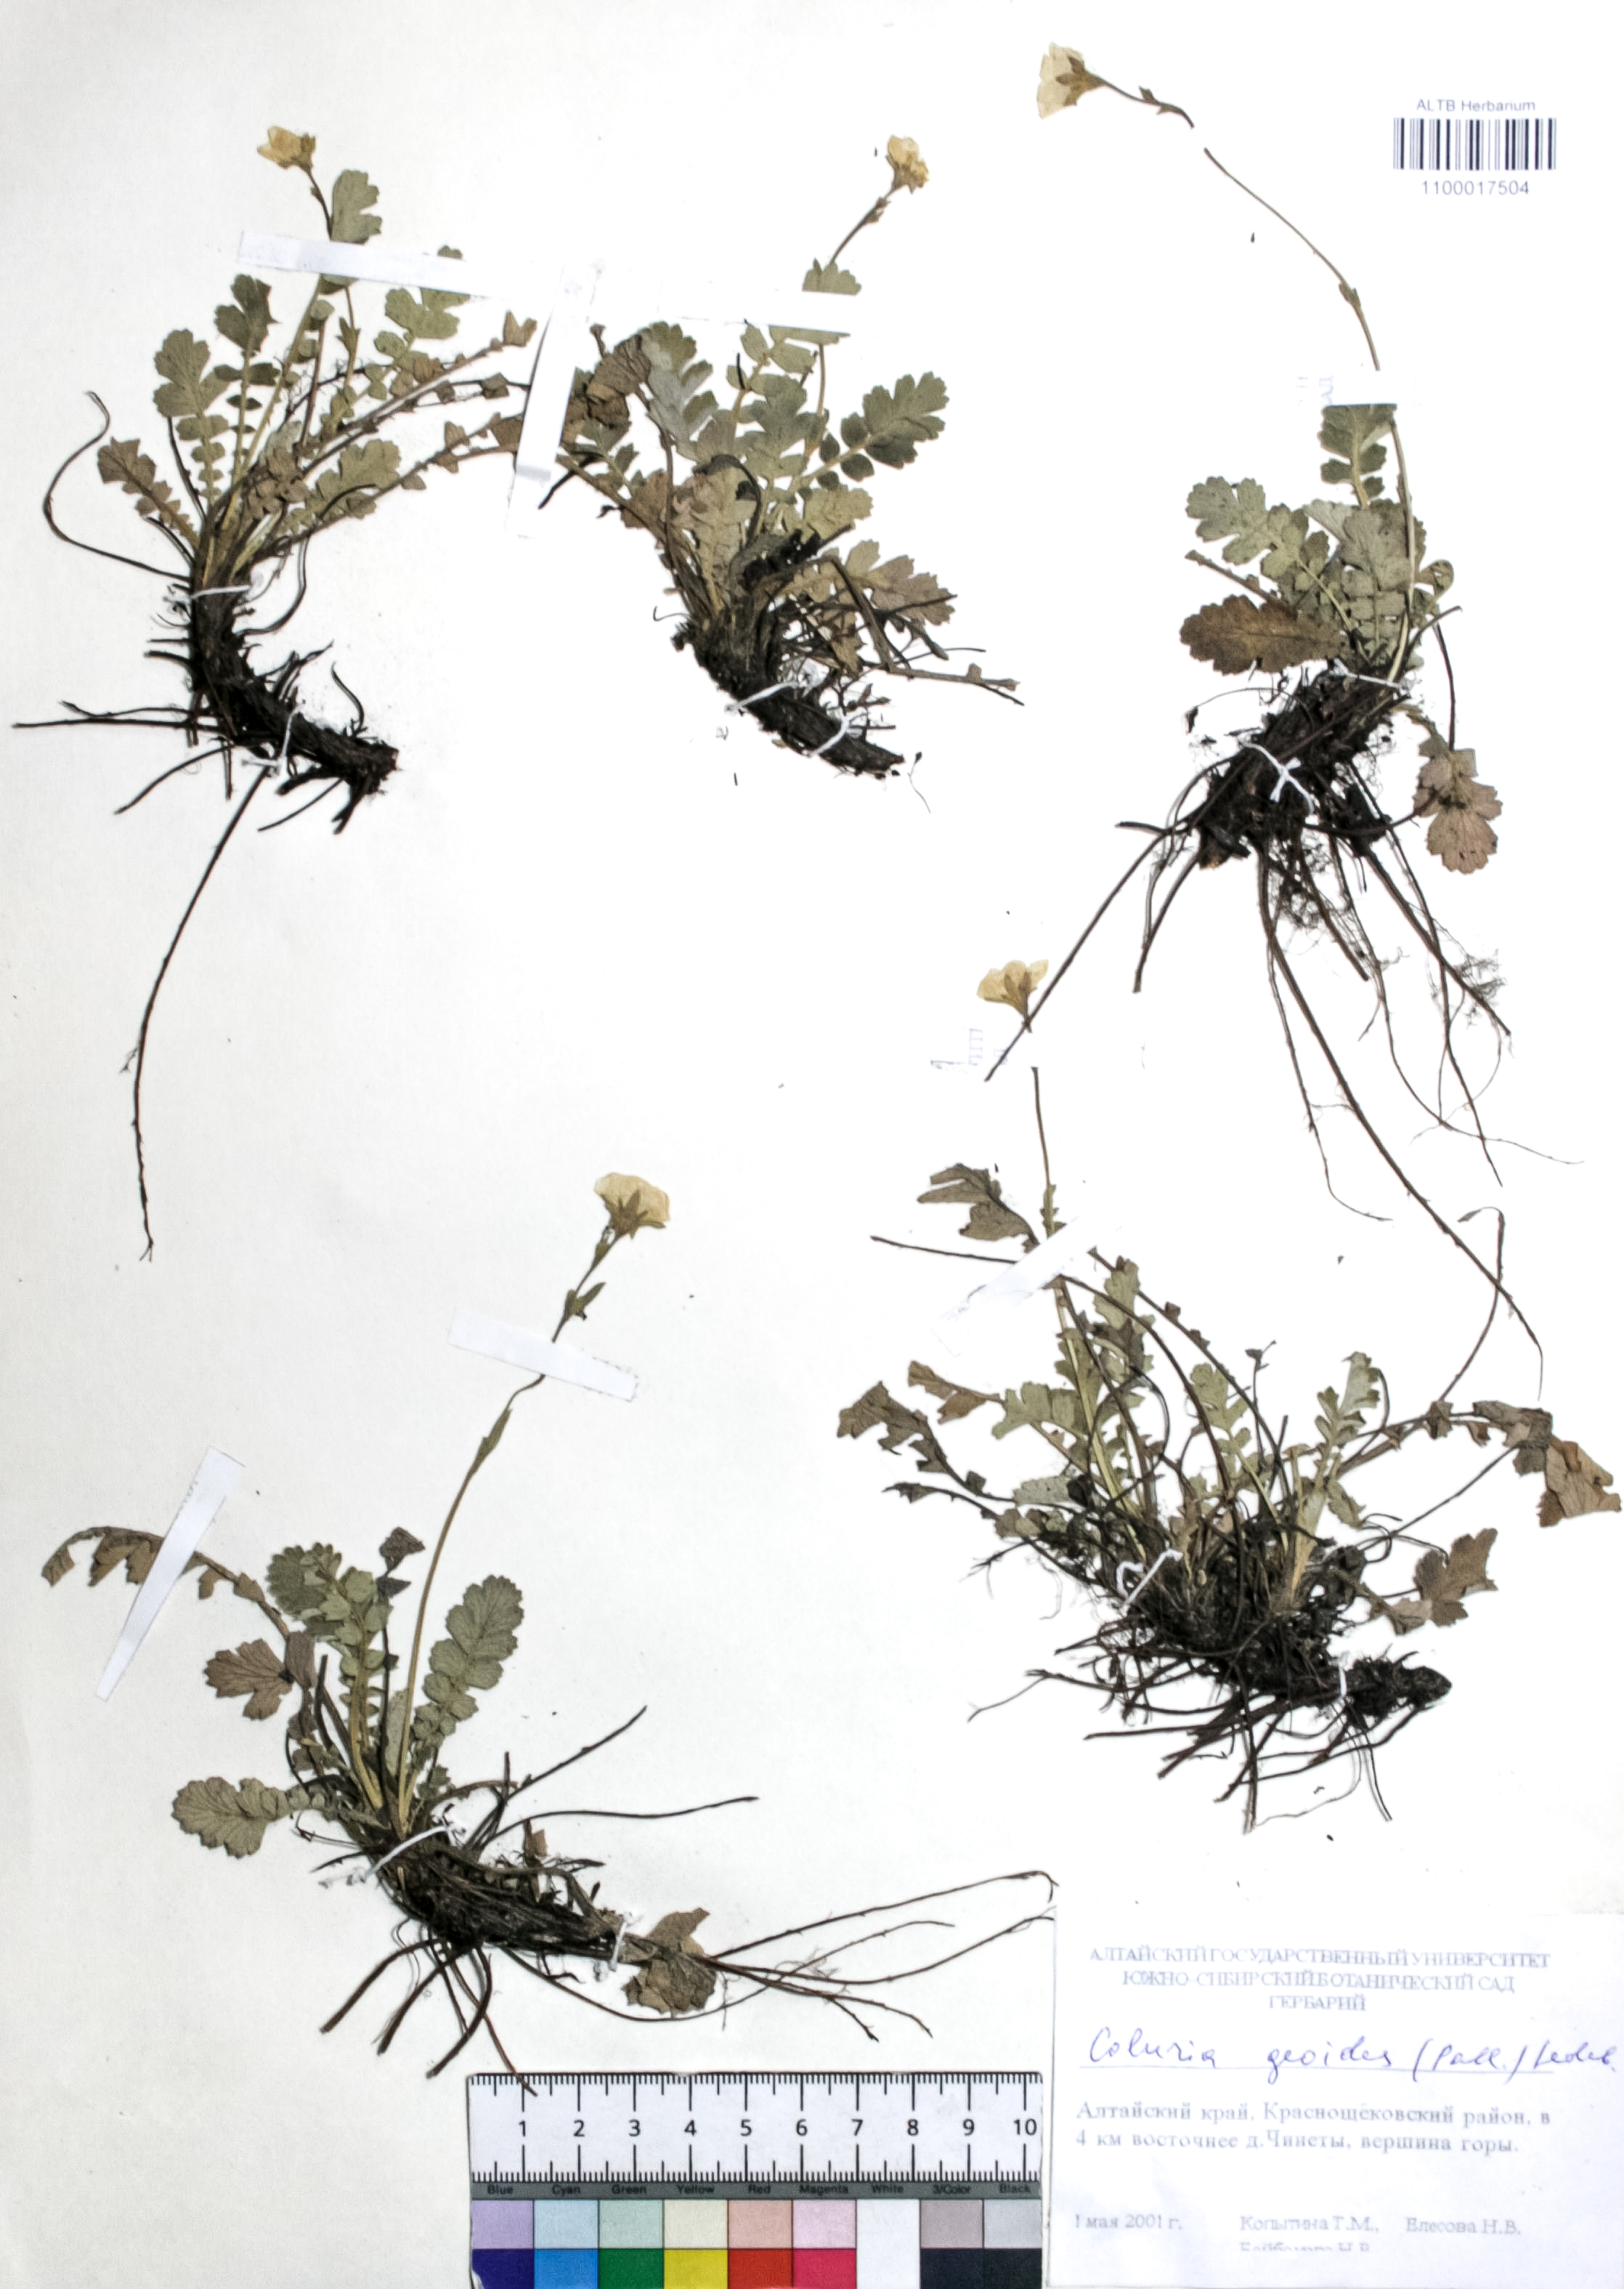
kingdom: Plantae
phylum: Tracheophyta
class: Magnoliopsida
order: Rosales
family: Rosaceae
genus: Geum
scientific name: Geum geoides
